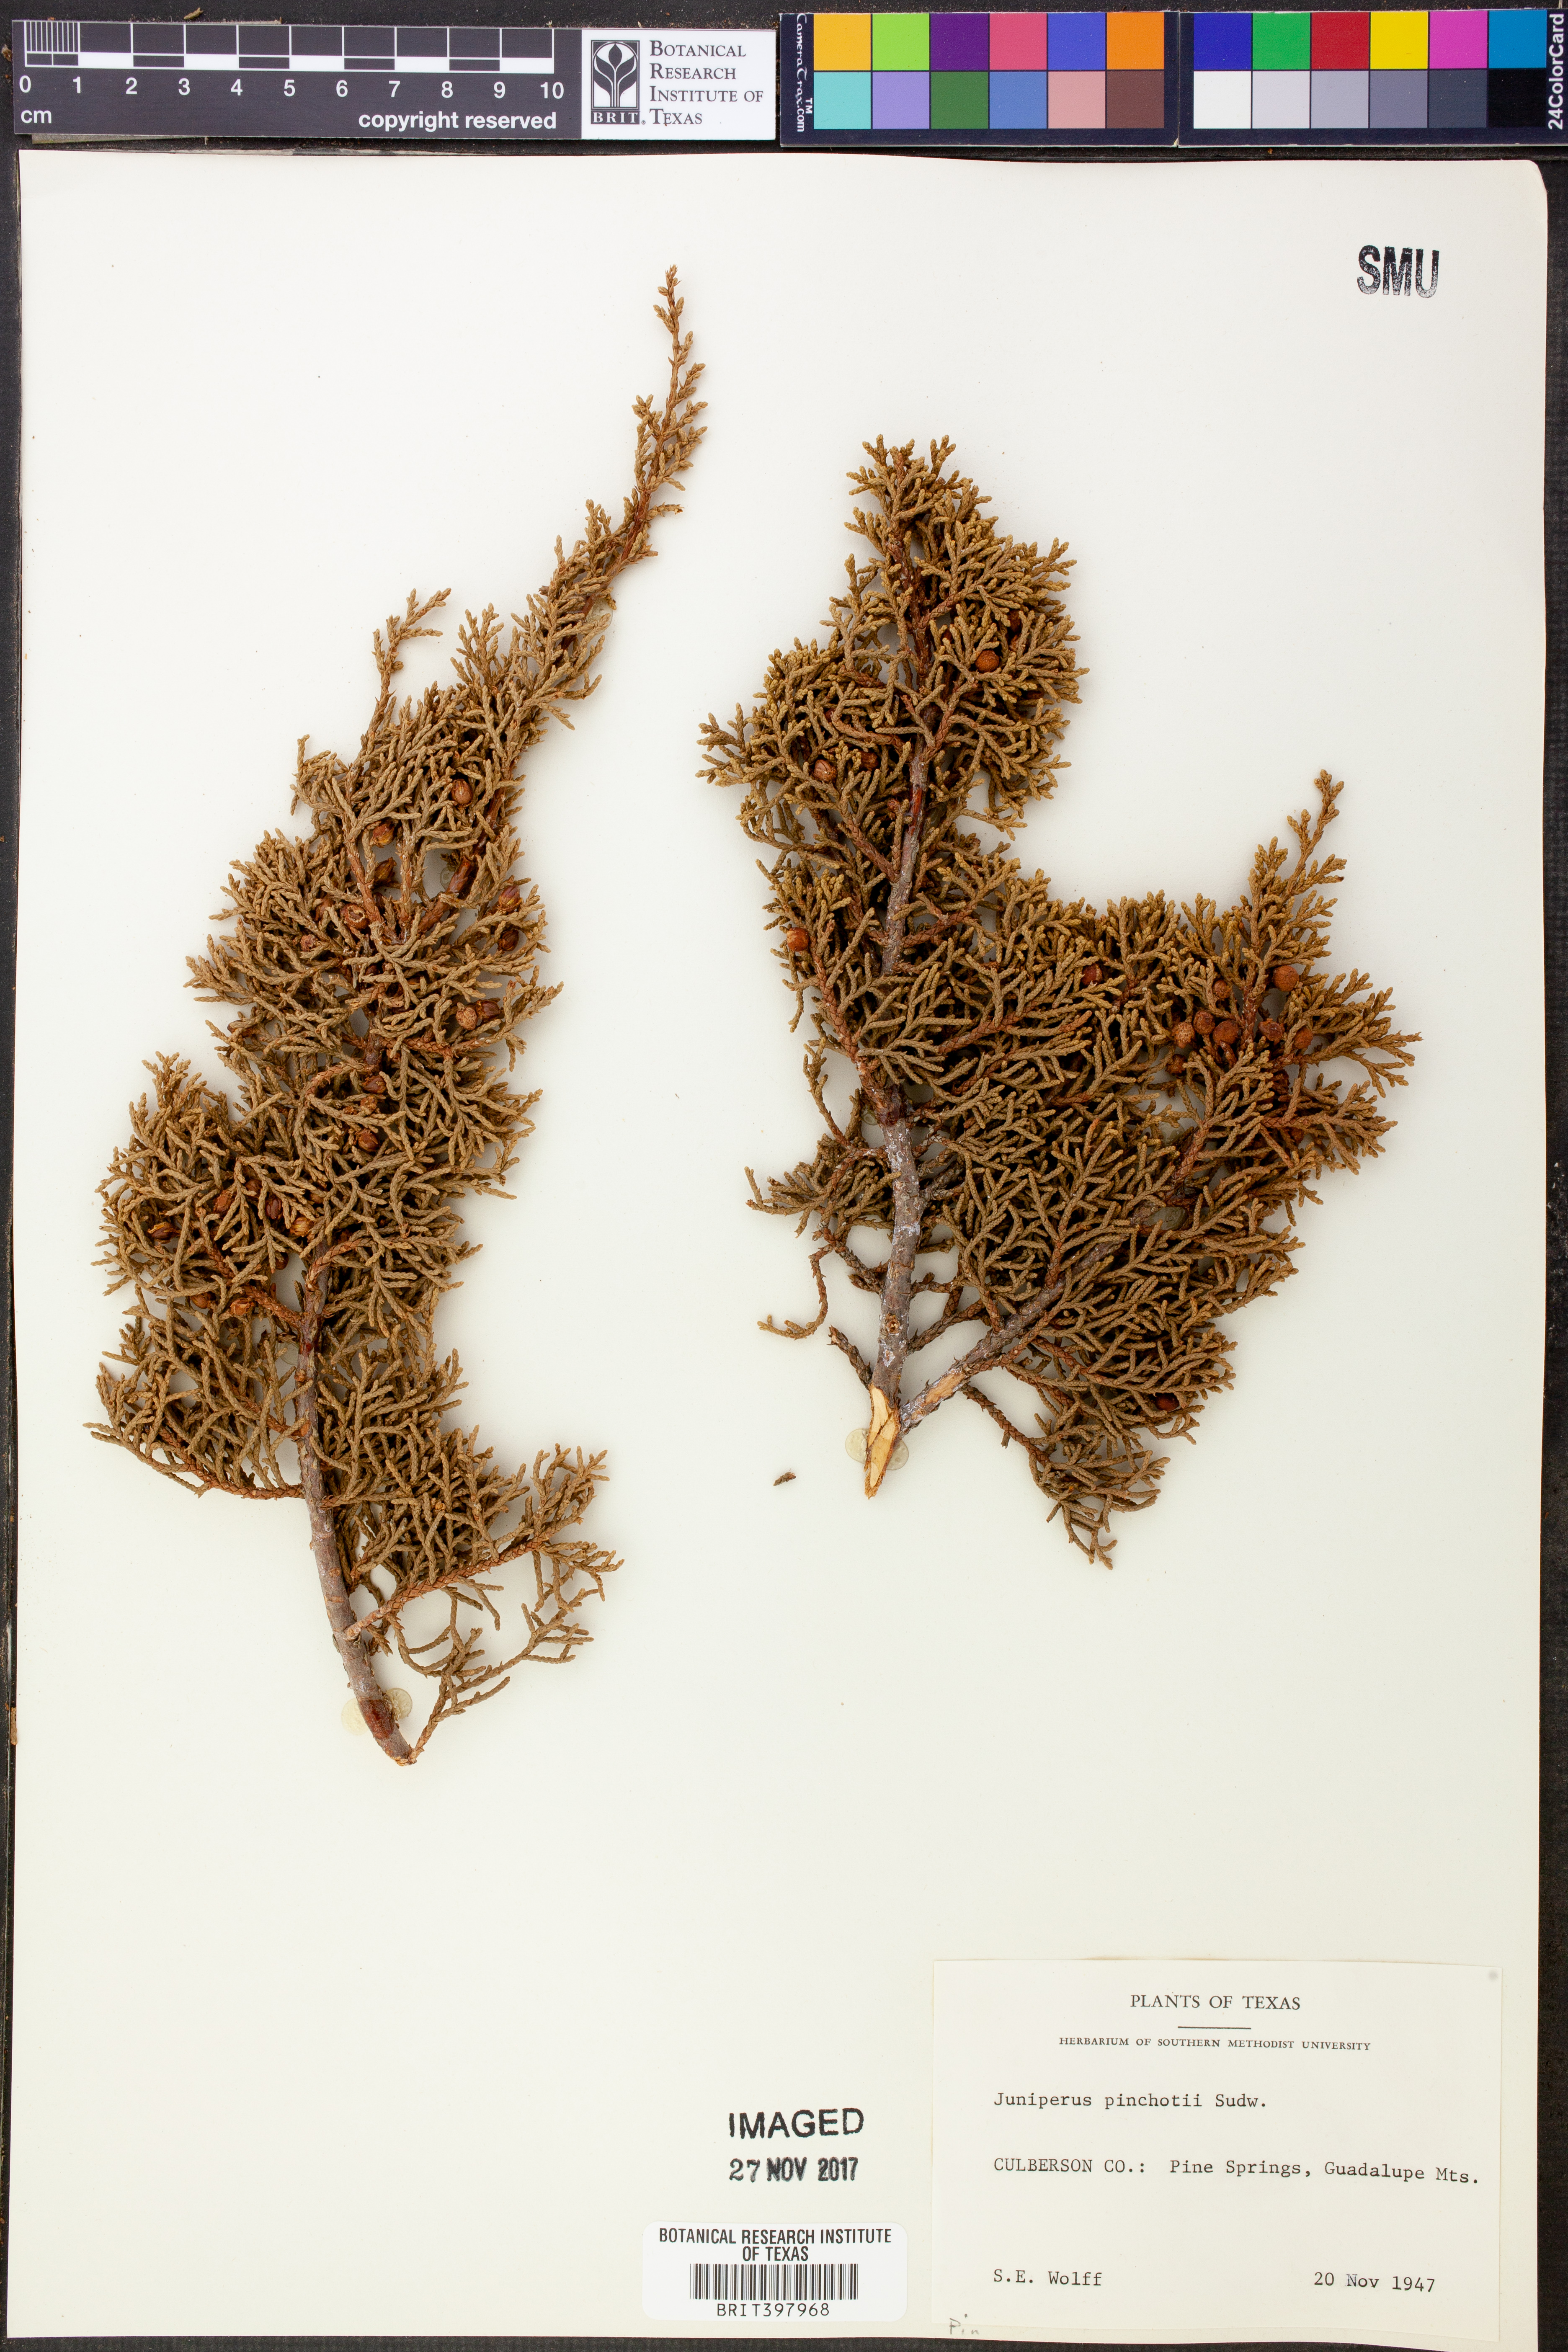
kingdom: Plantae
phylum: Tracheophyta
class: Pinopsida
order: Pinales
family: Cupressaceae
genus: Juniperus
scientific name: Juniperus pinchotii
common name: Pinchot juniper
